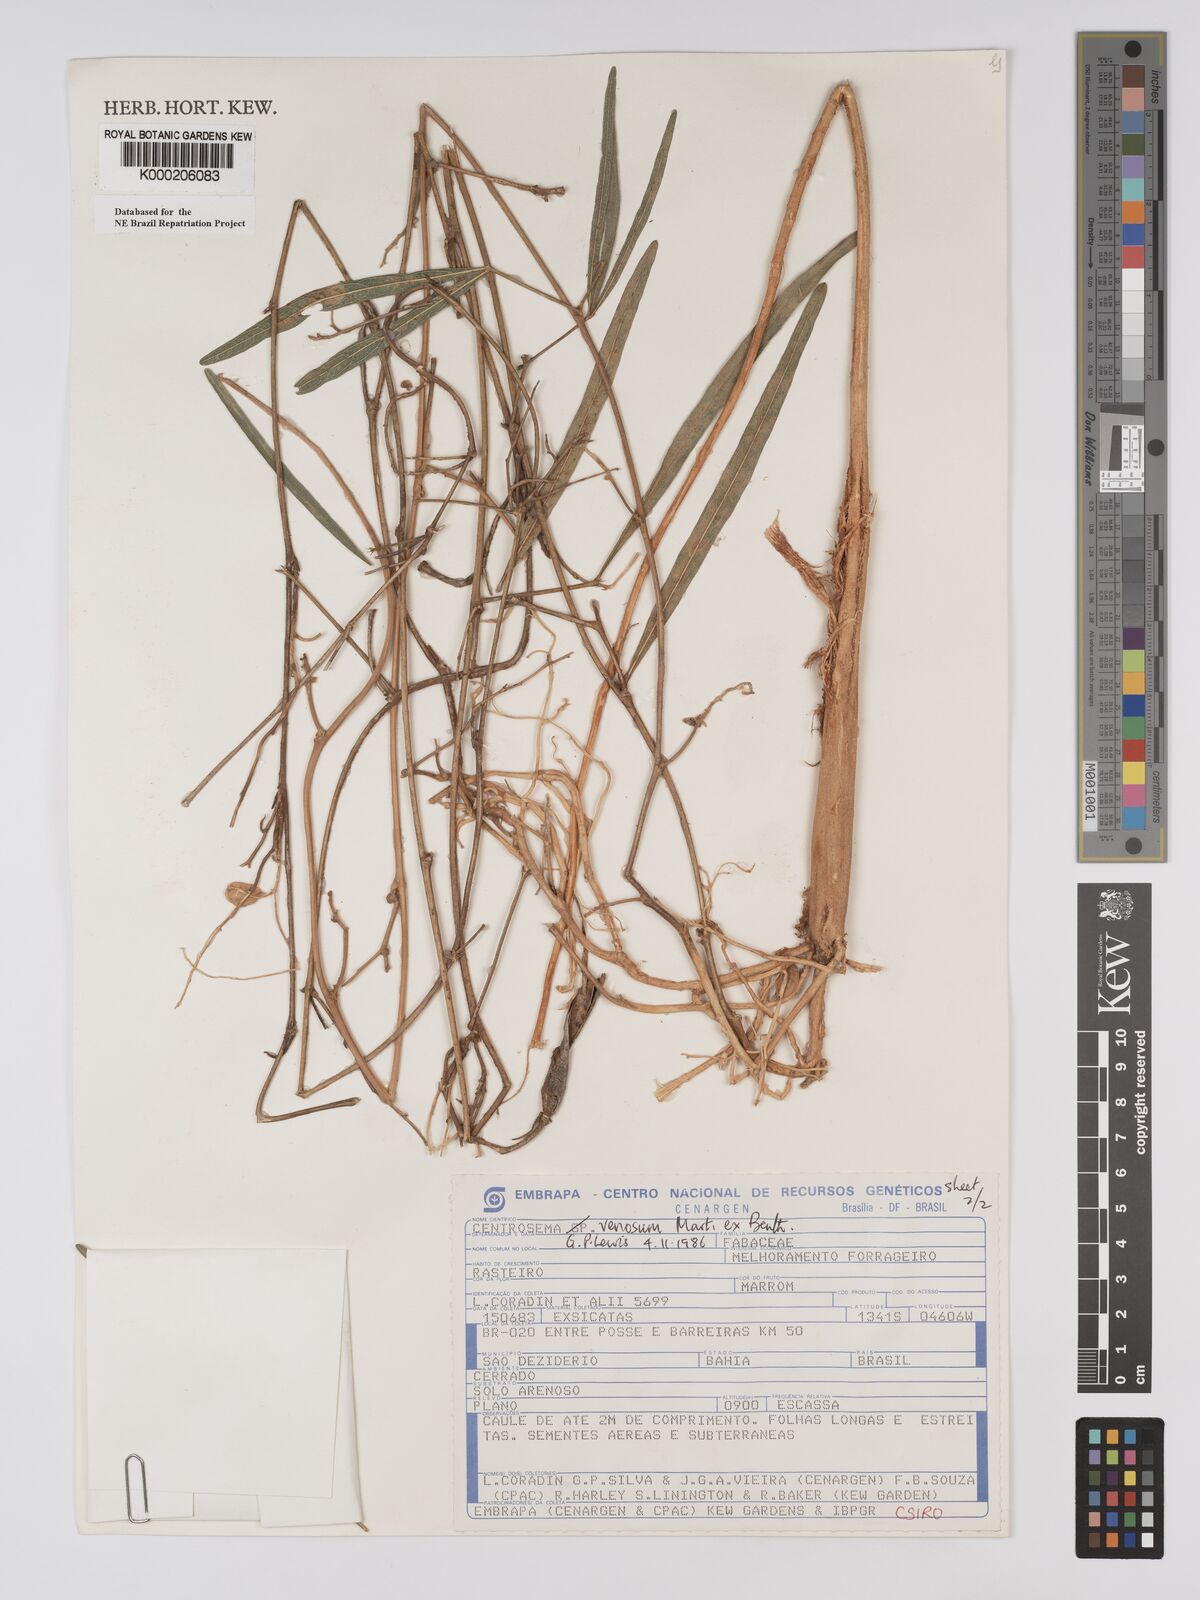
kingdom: Plantae
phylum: Tracheophyta
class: Magnoliopsida
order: Fabales
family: Fabaceae
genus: Centrosema
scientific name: Centrosema venosum
